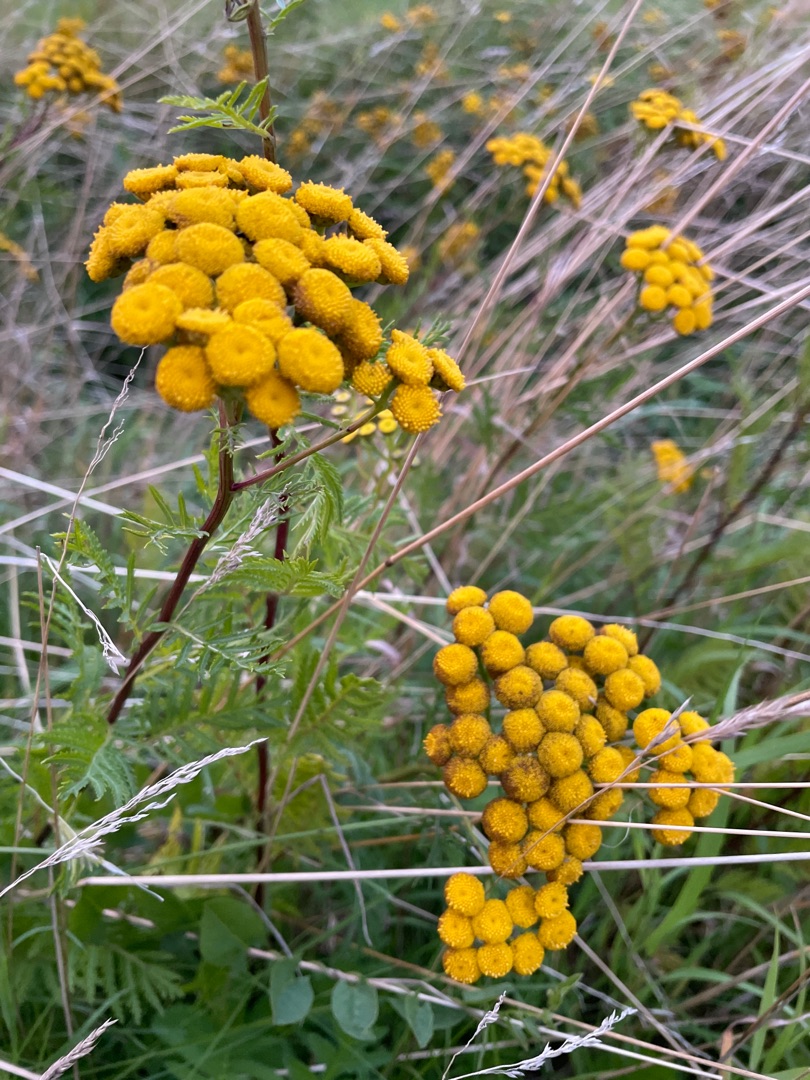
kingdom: Plantae
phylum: Tracheophyta
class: Magnoliopsida
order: Asterales
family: Asteraceae
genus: Tanacetum
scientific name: Tanacetum vulgare
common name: Rejnfan
